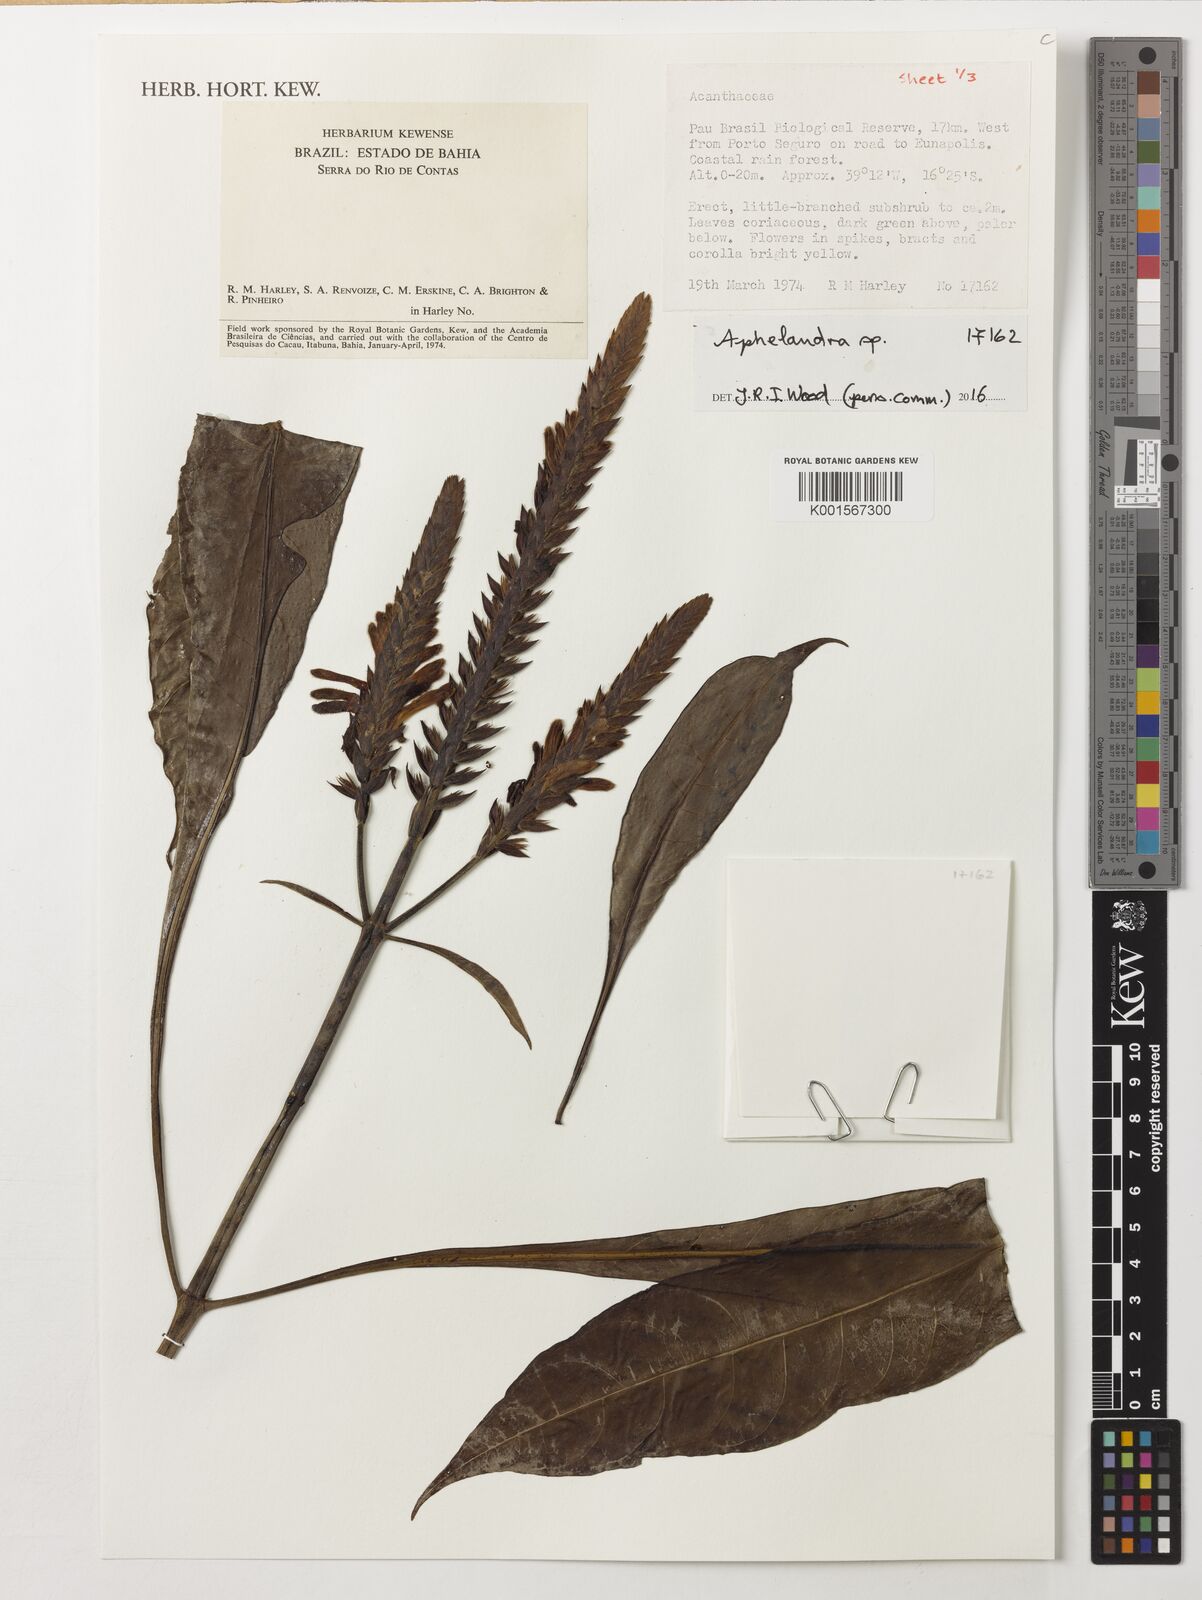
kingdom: Plantae
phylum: Tracheophyta
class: Magnoliopsida
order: Lamiales
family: Acanthaceae
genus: Aphelandra
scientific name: Aphelandra harleyi
